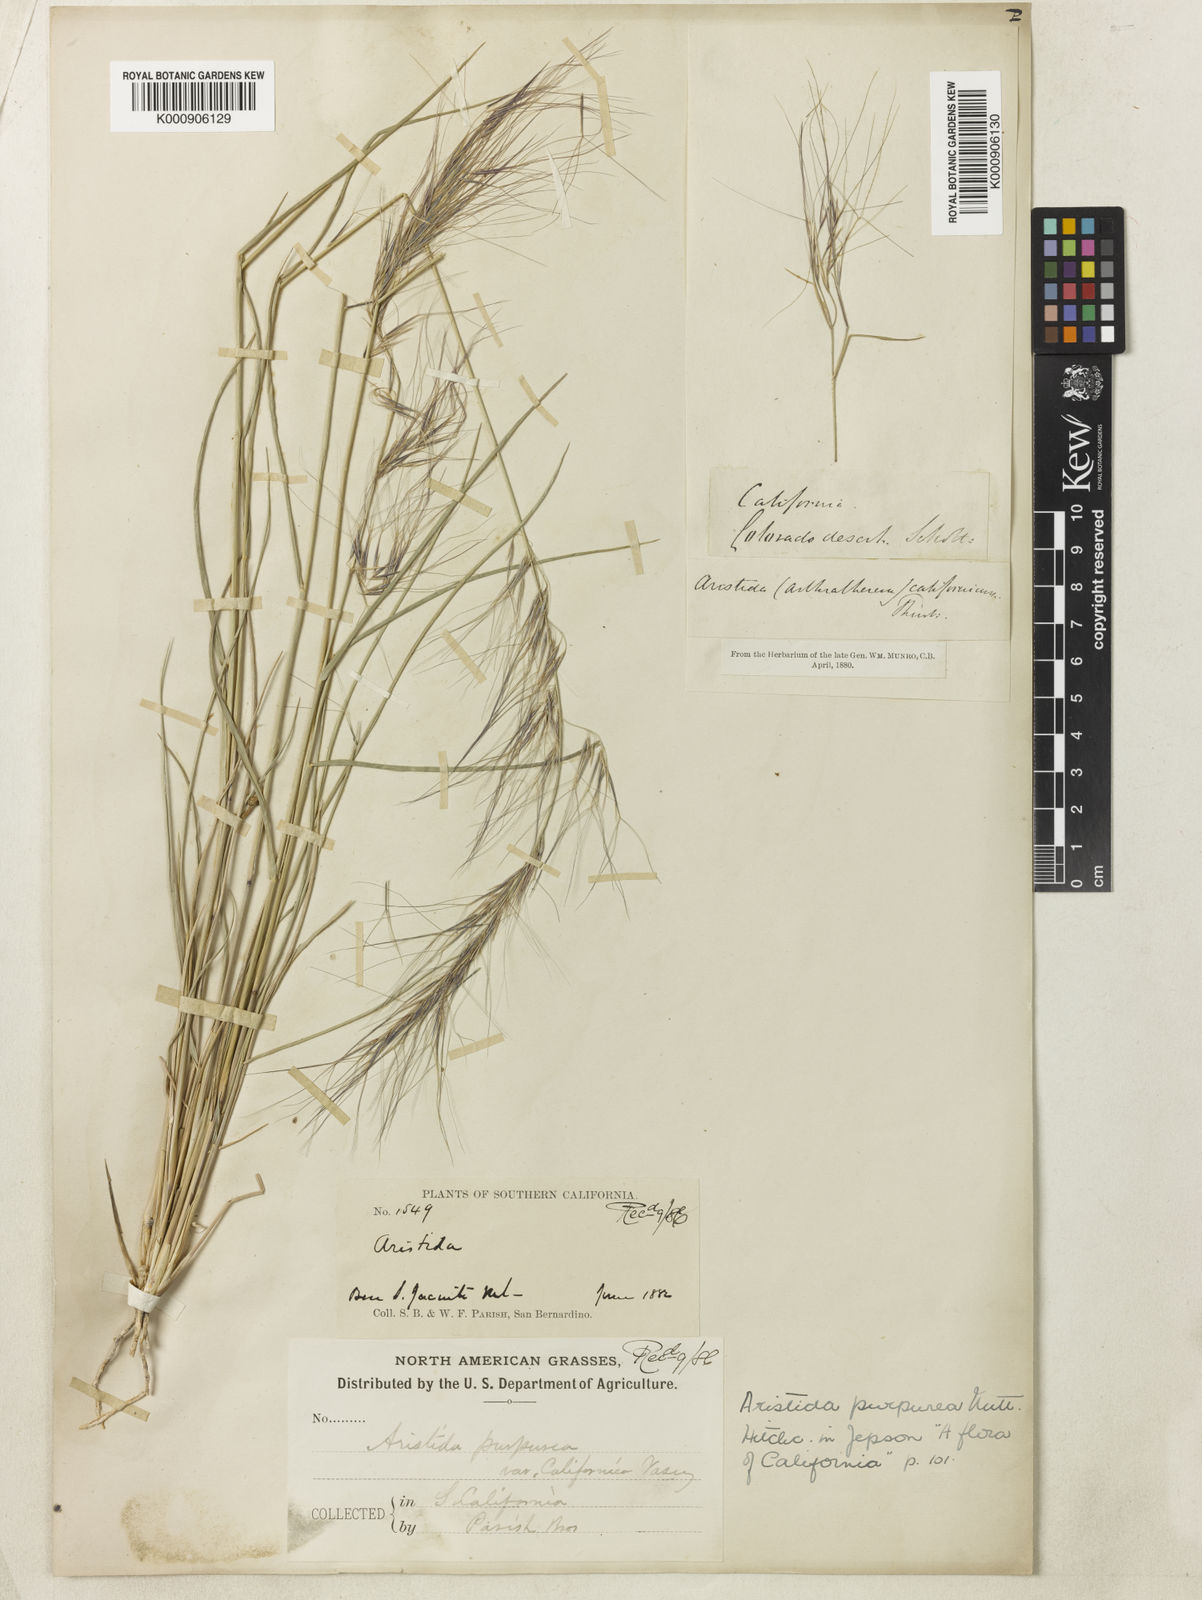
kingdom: Plantae
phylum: Tracheophyta
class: Liliopsida
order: Poales
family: Poaceae
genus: Aristida
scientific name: Aristida californica
